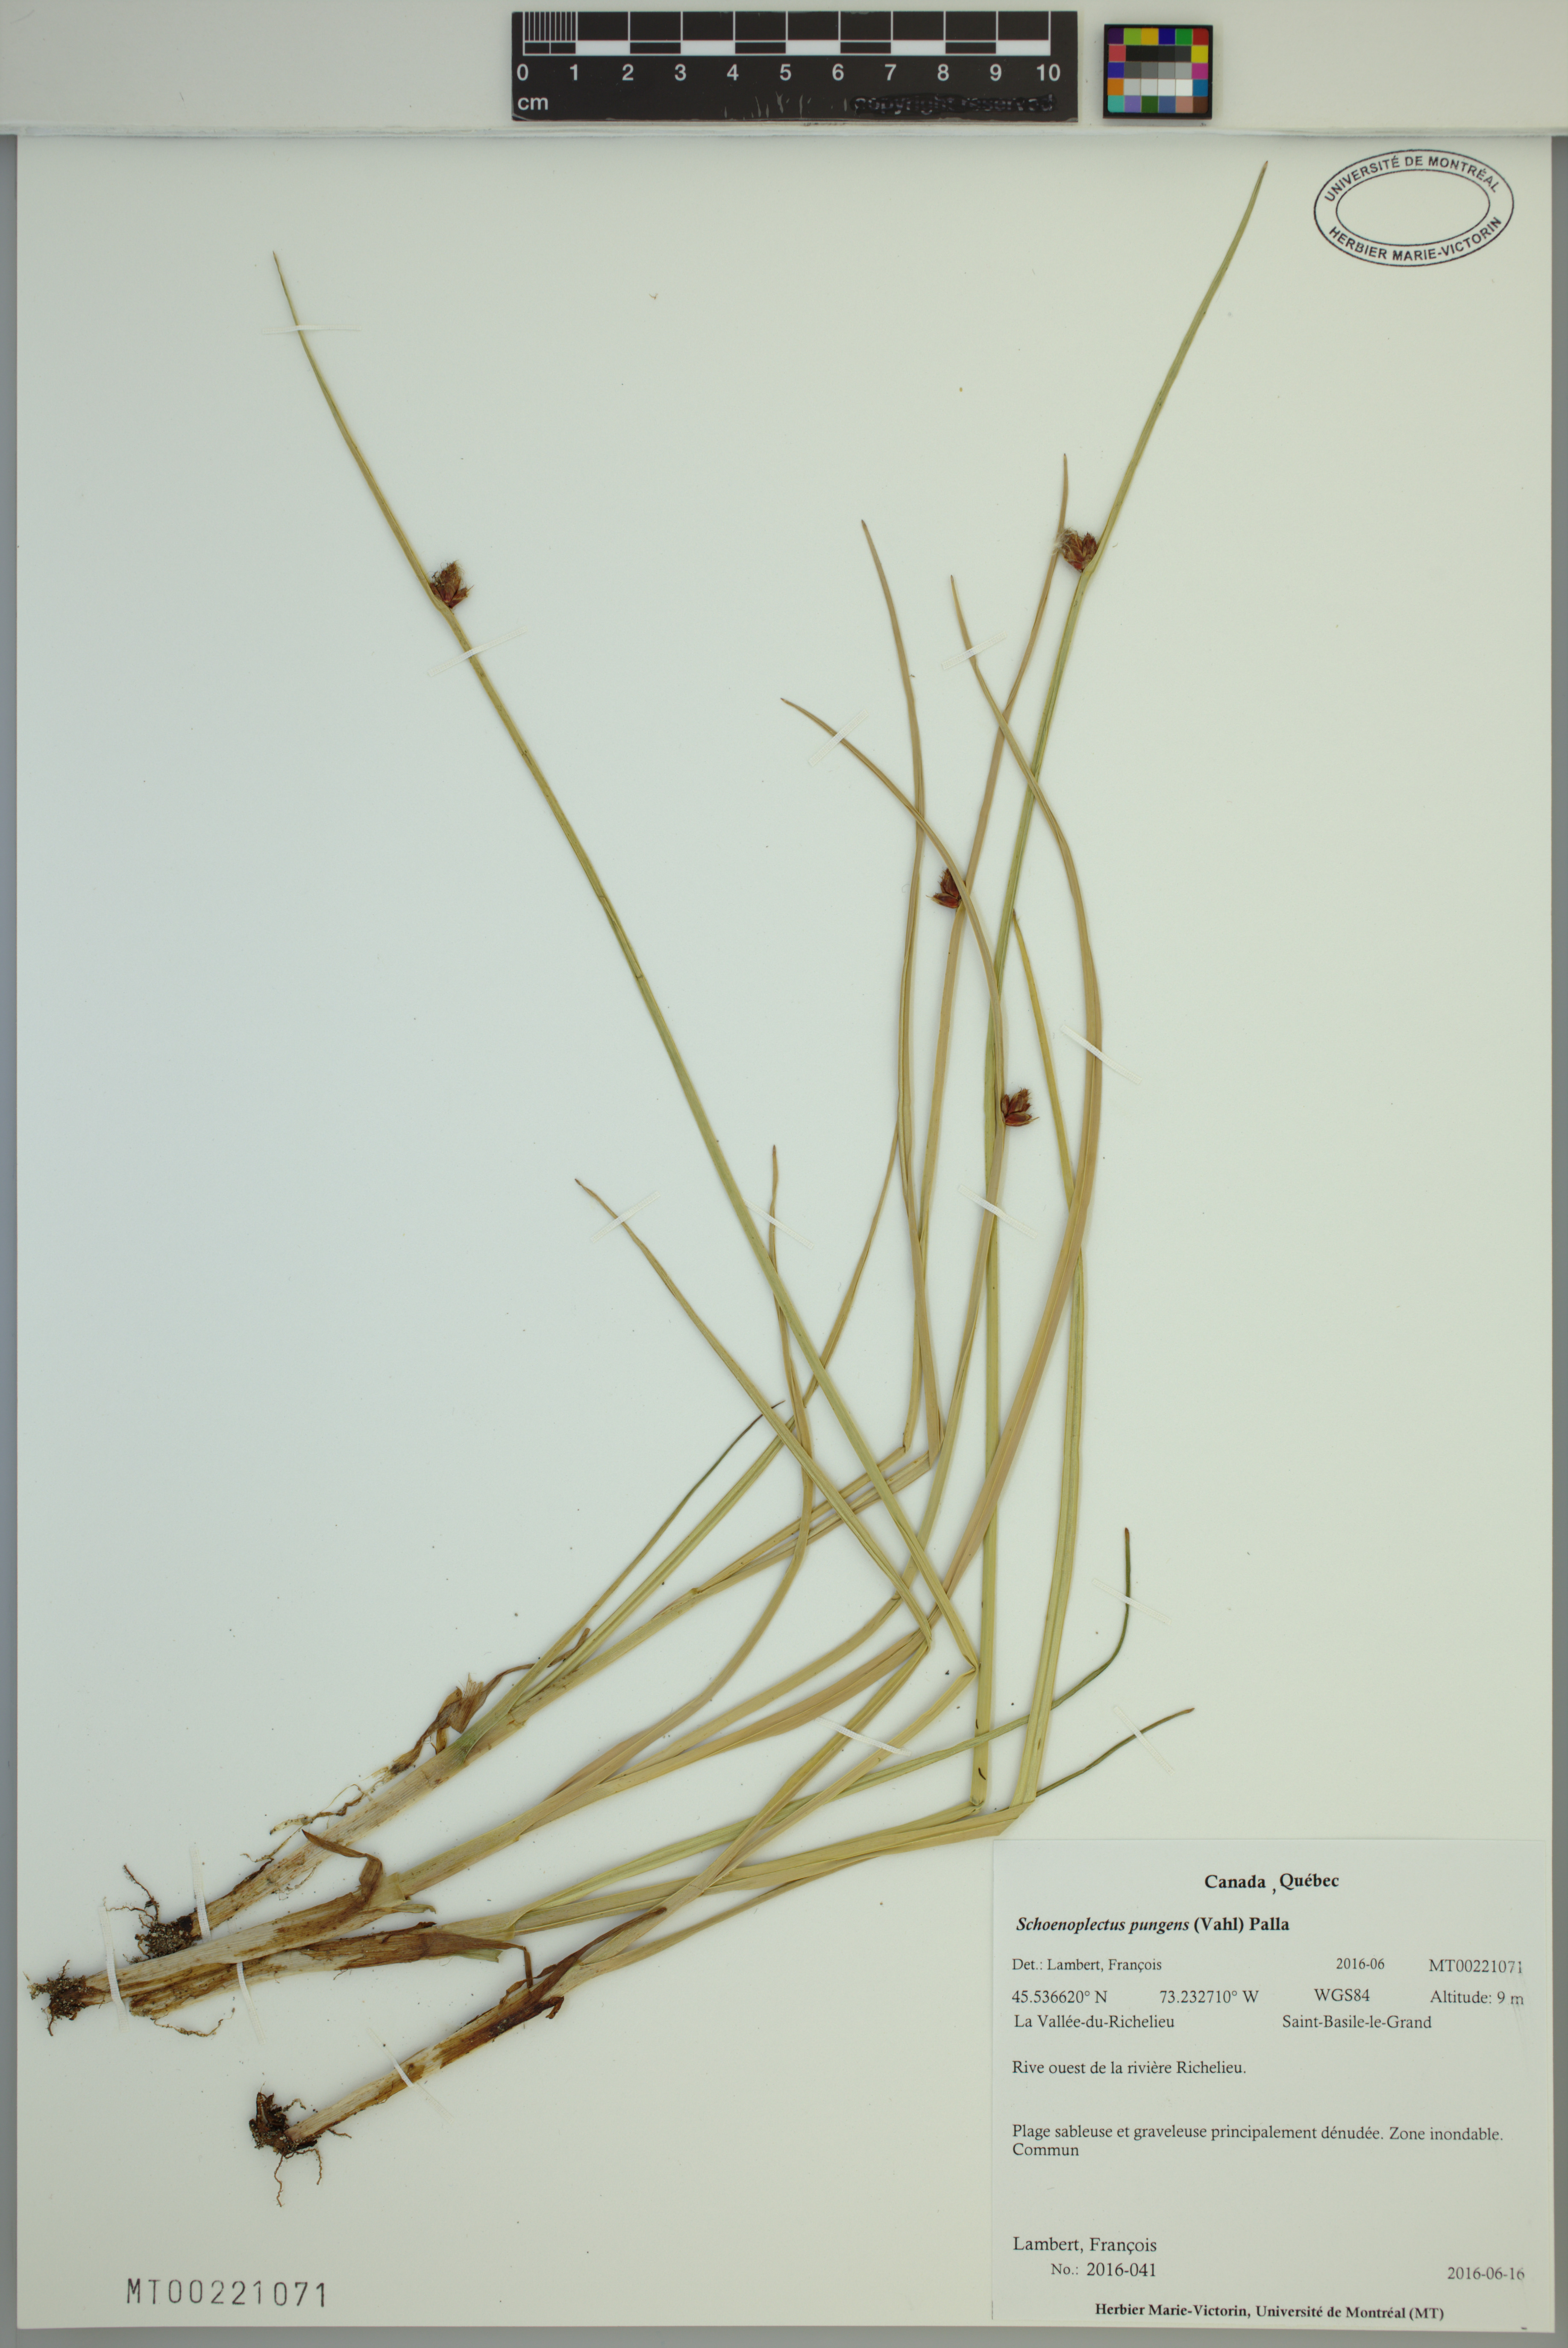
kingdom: Plantae
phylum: Tracheophyta
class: Liliopsida
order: Poales
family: Cyperaceae
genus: Schoenoplectus
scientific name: Schoenoplectus pungens
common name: Sharp club-rush
